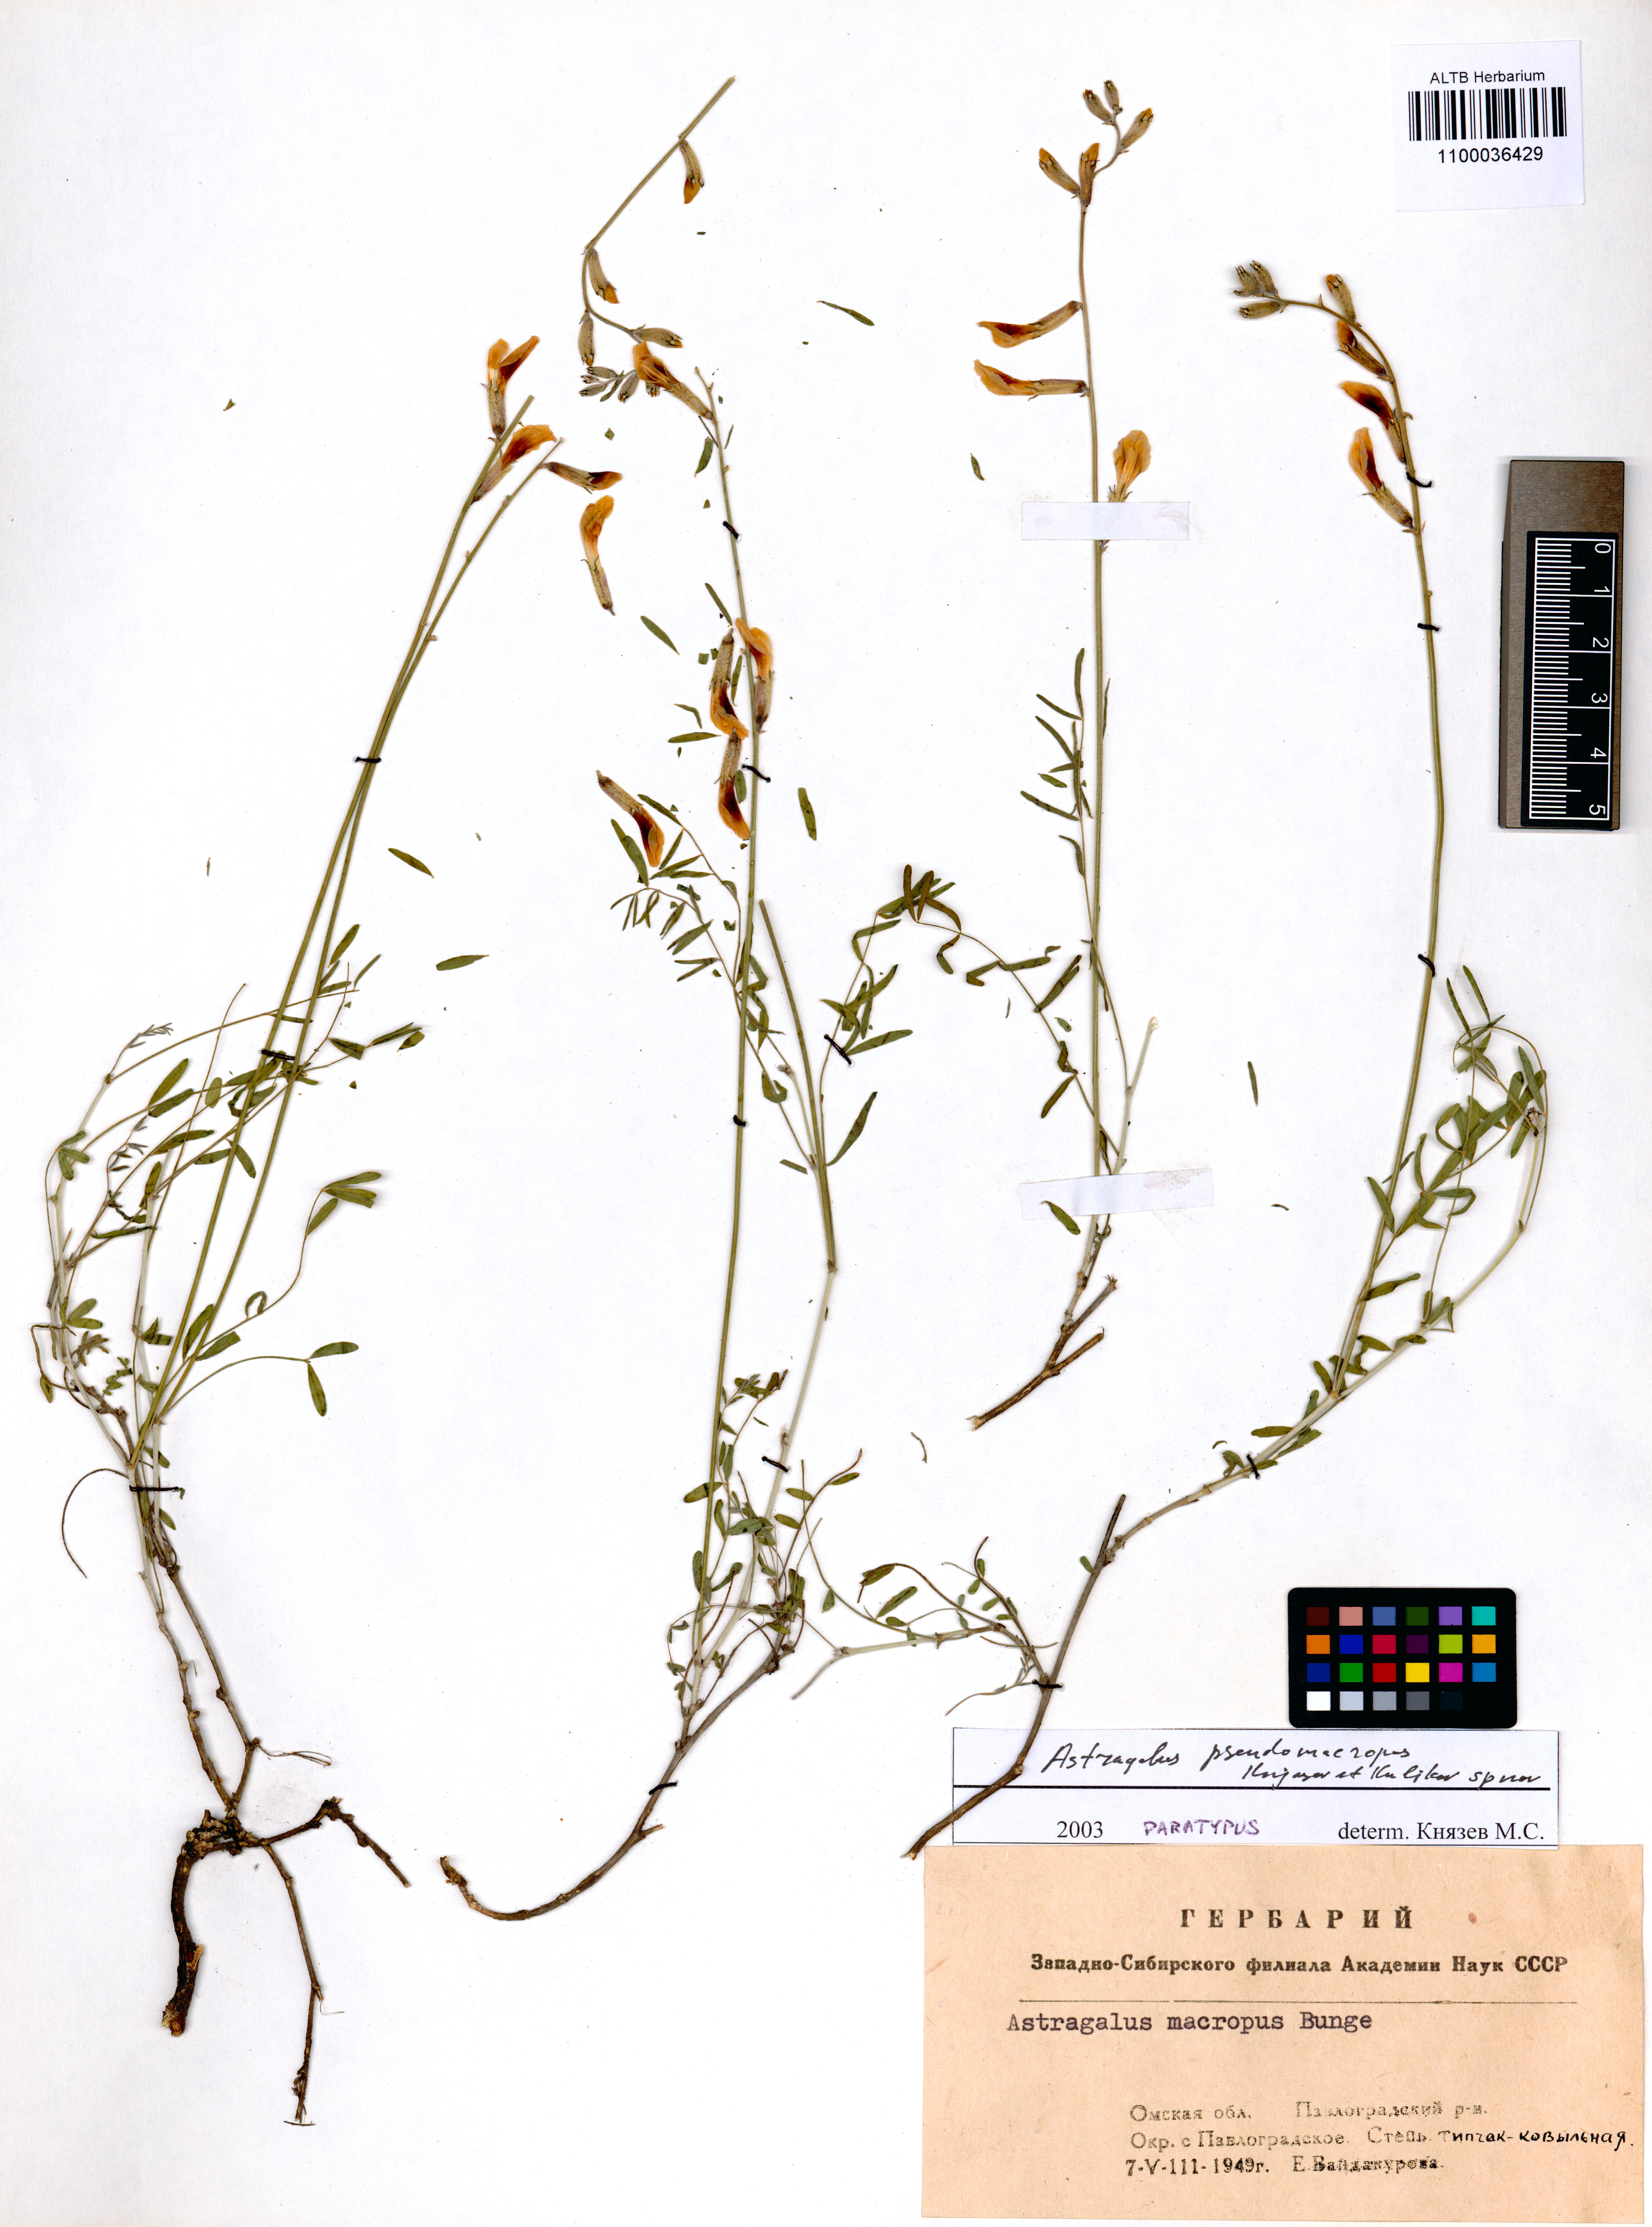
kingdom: Plantae
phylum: Tracheophyta
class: Magnoliopsida
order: Fabales
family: Fabaceae
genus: Astragalus
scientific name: Astragalus macropus
